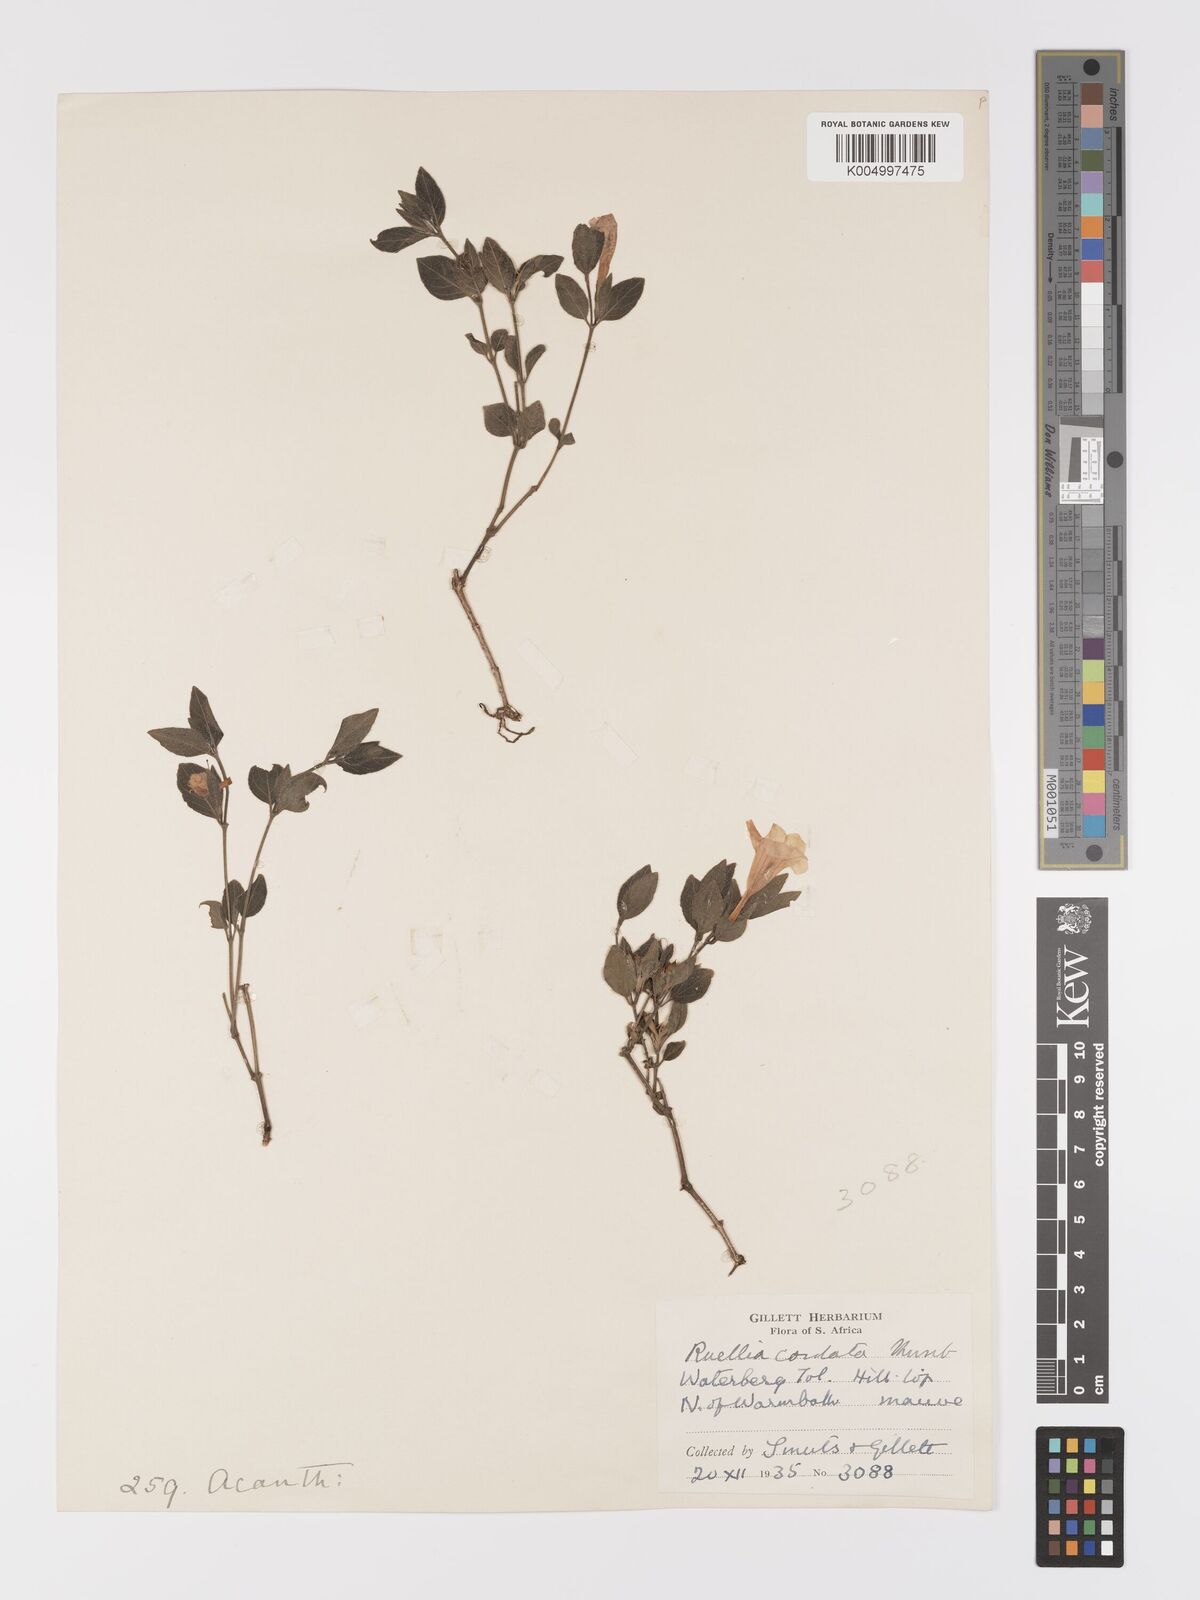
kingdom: Plantae
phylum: Tracheophyta
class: Magnoliopsida
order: Lamiales
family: Acanthaceae
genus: Ruellia
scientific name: Ruellia cordata
